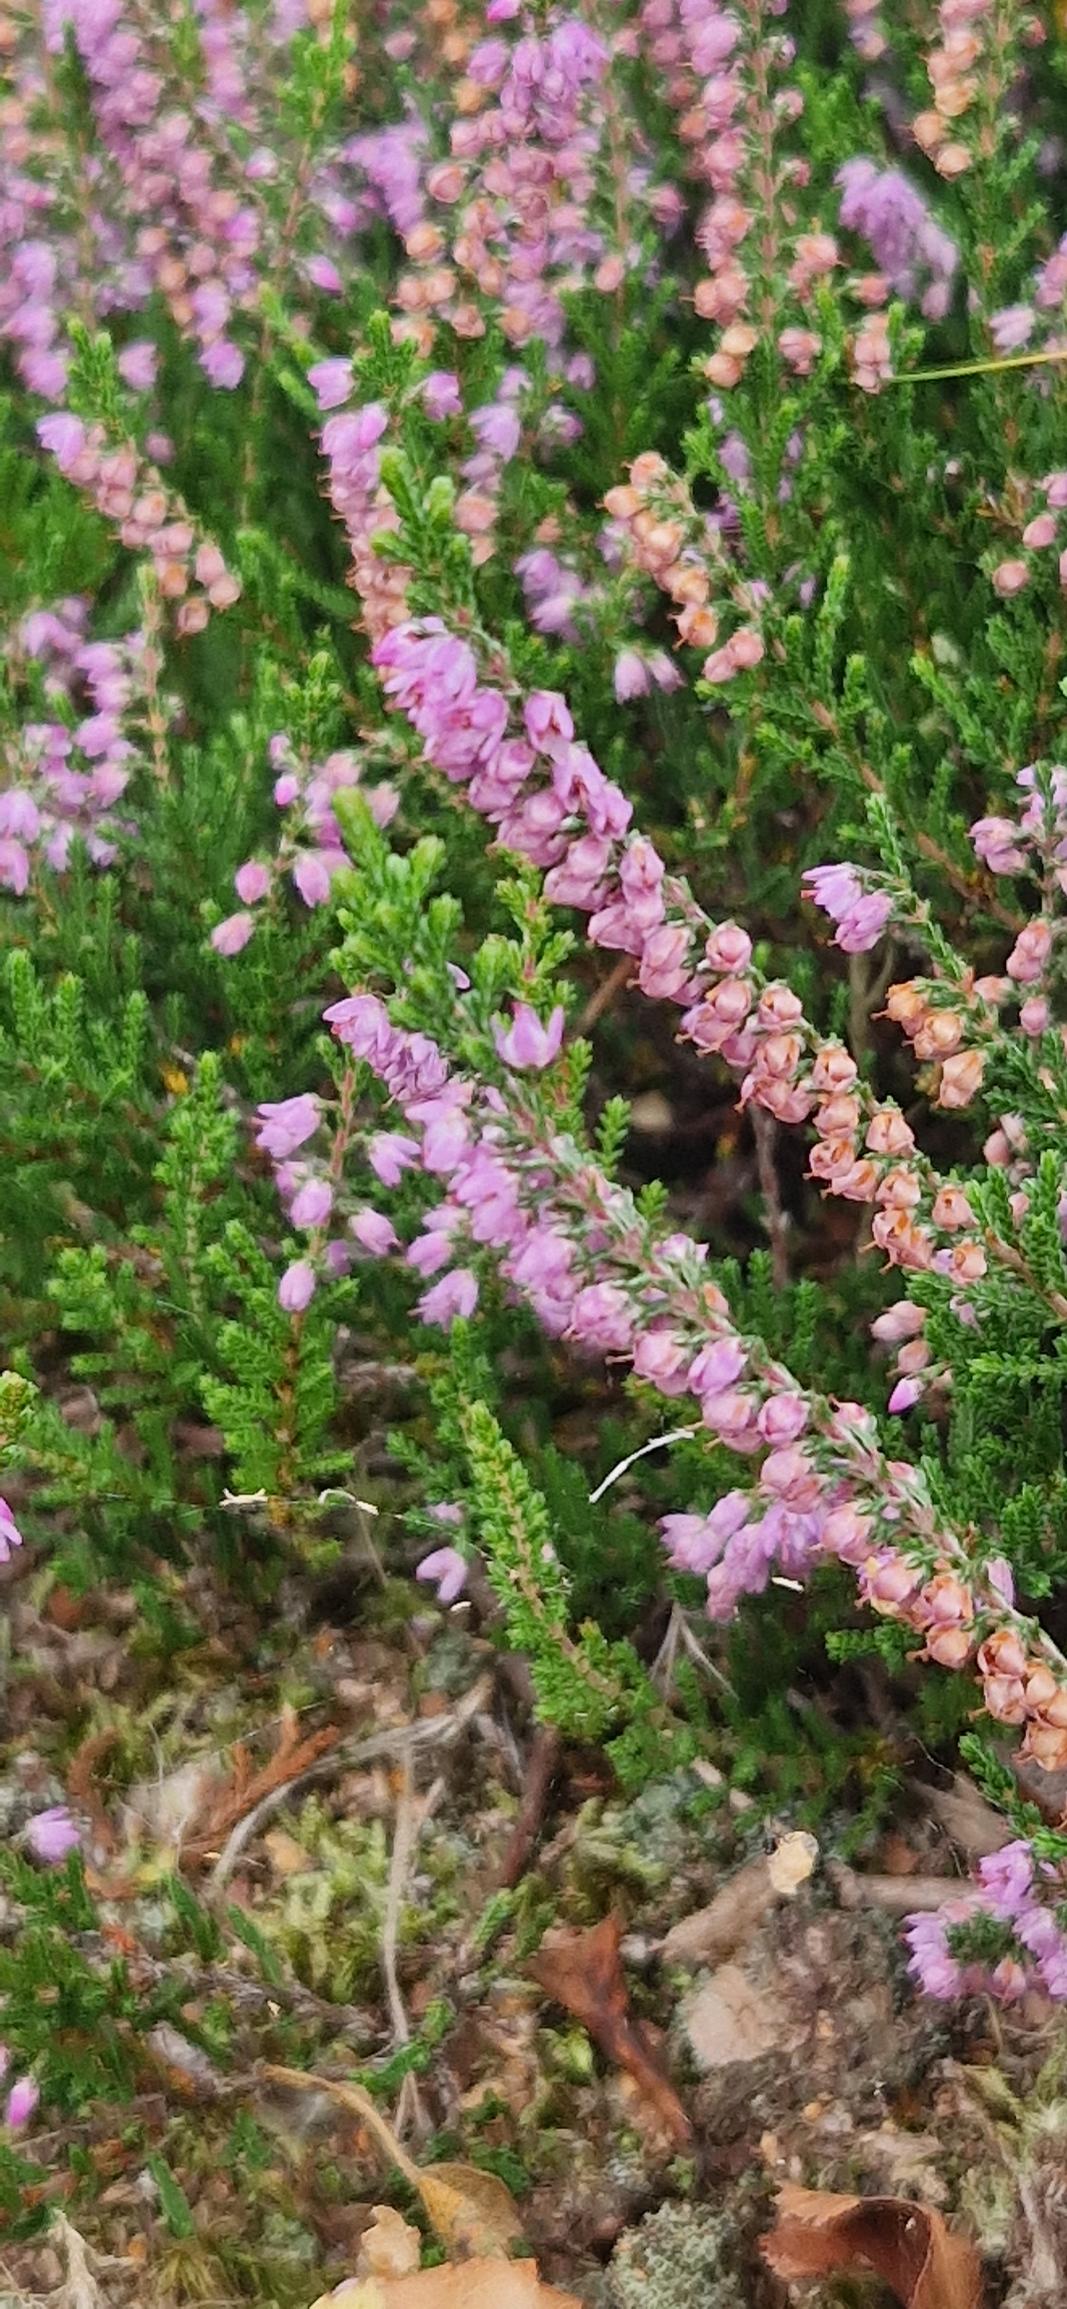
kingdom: Plantae
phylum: Tracheophyta
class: Magnoliopsida
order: Ericales
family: Ericaceae
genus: Calluna
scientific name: Calluna vulgaris
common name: Hedelyng
